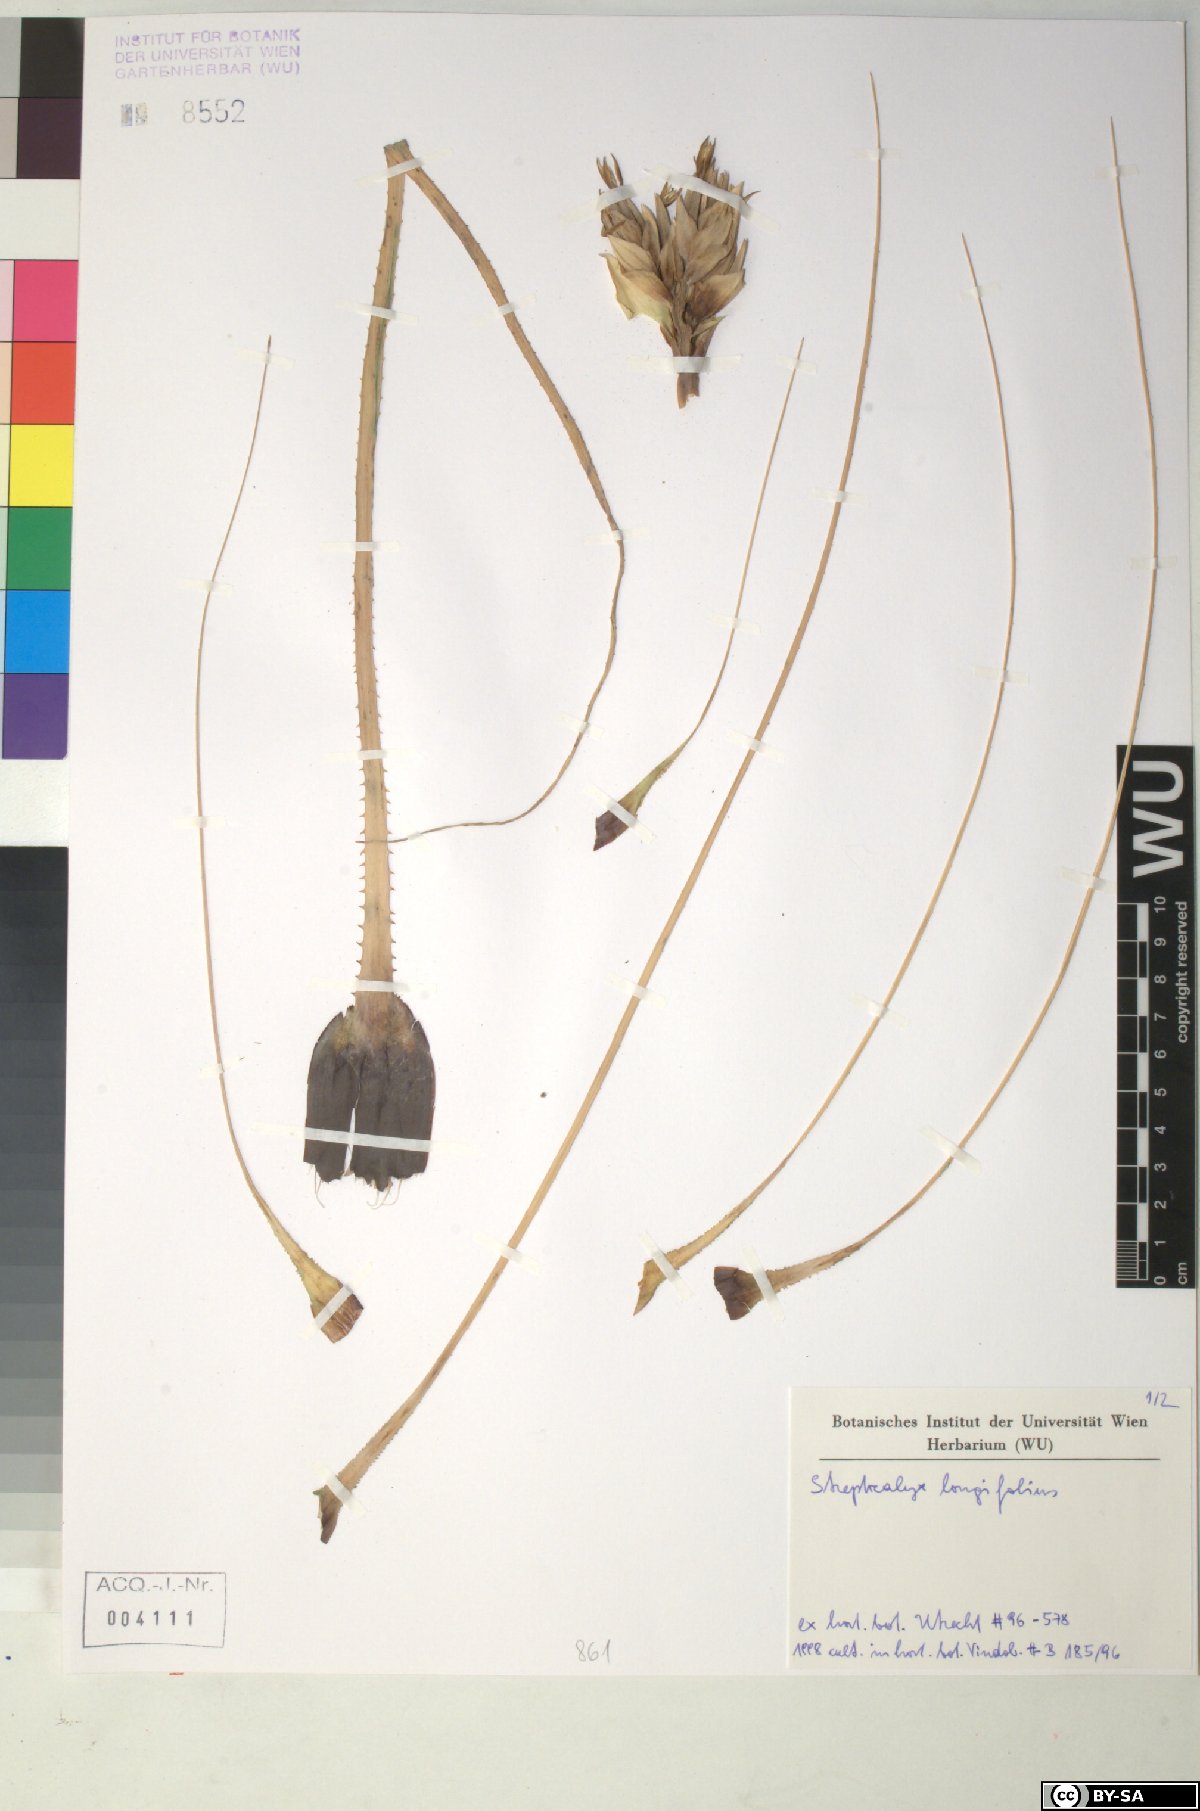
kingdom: Plantae
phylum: Tracheophyta
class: Liliopsida
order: Poales
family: Bromeliaceae
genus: Aechmea
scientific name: Aechmea longifolia
